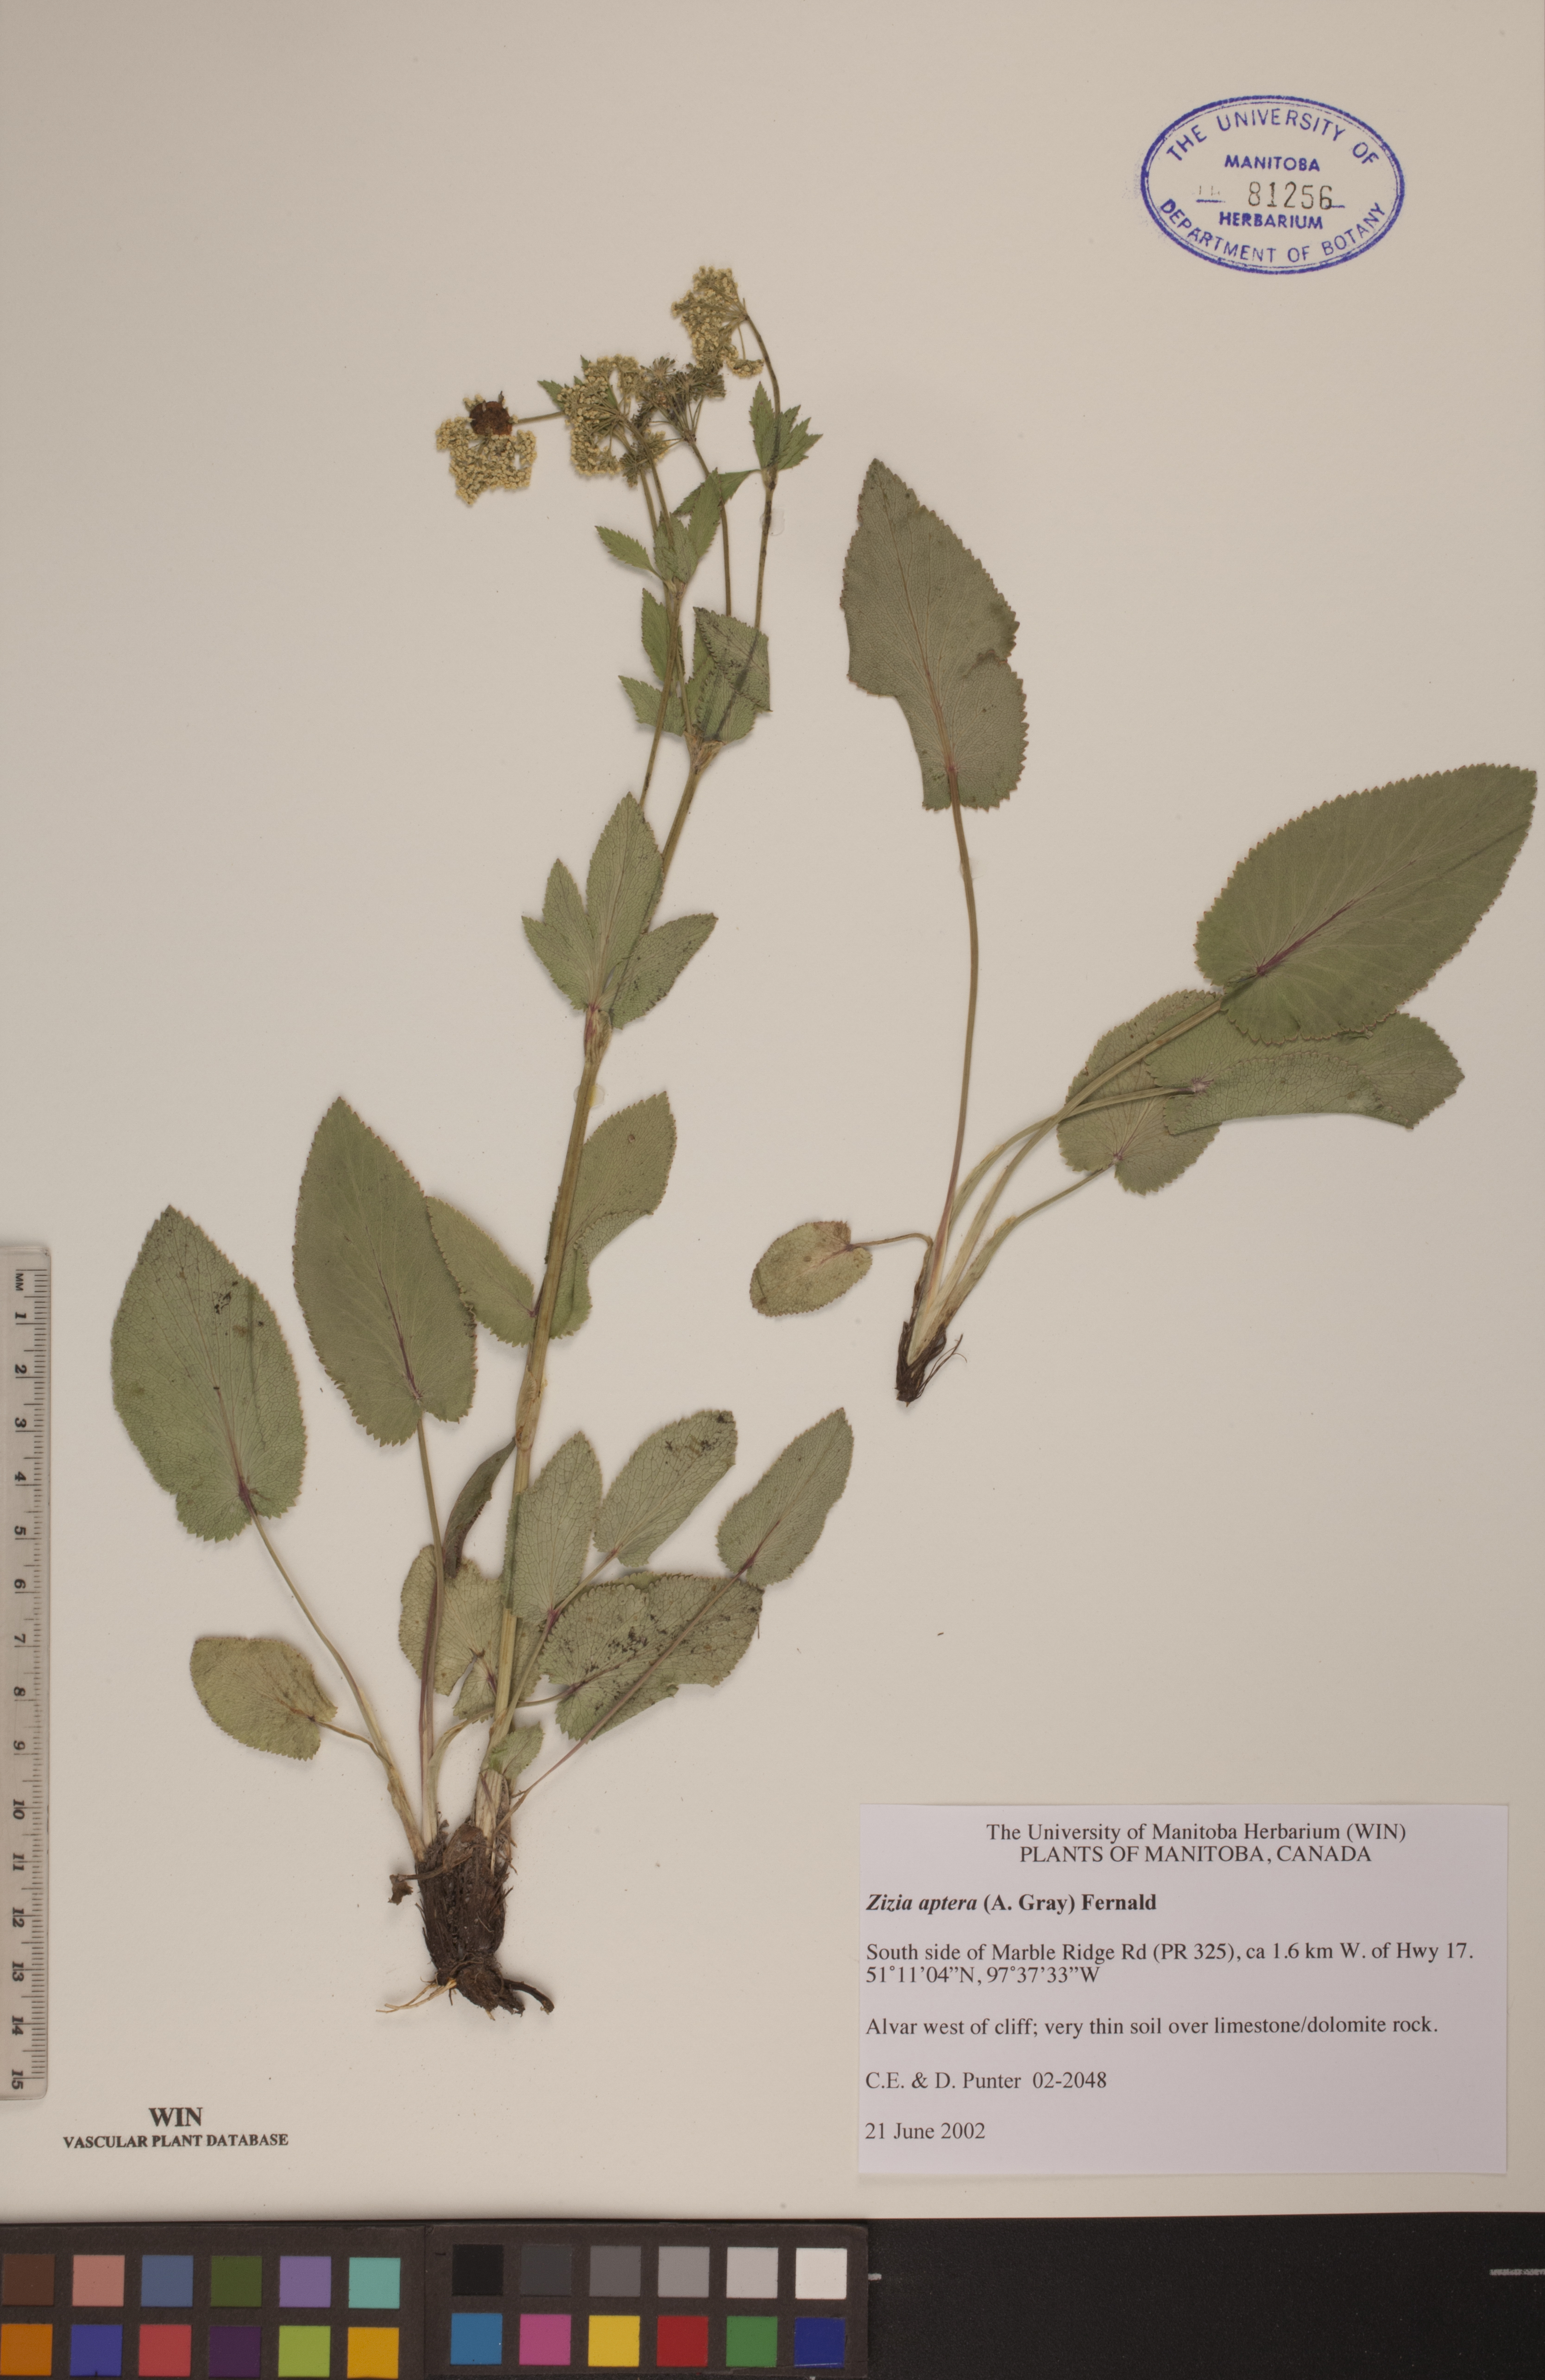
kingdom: Plantae
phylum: Tracheophyta
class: Magnoliopsida
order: Apiales
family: Apiaceae
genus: Zizia
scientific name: Zizia aptera
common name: Heart-leaved alexanders
